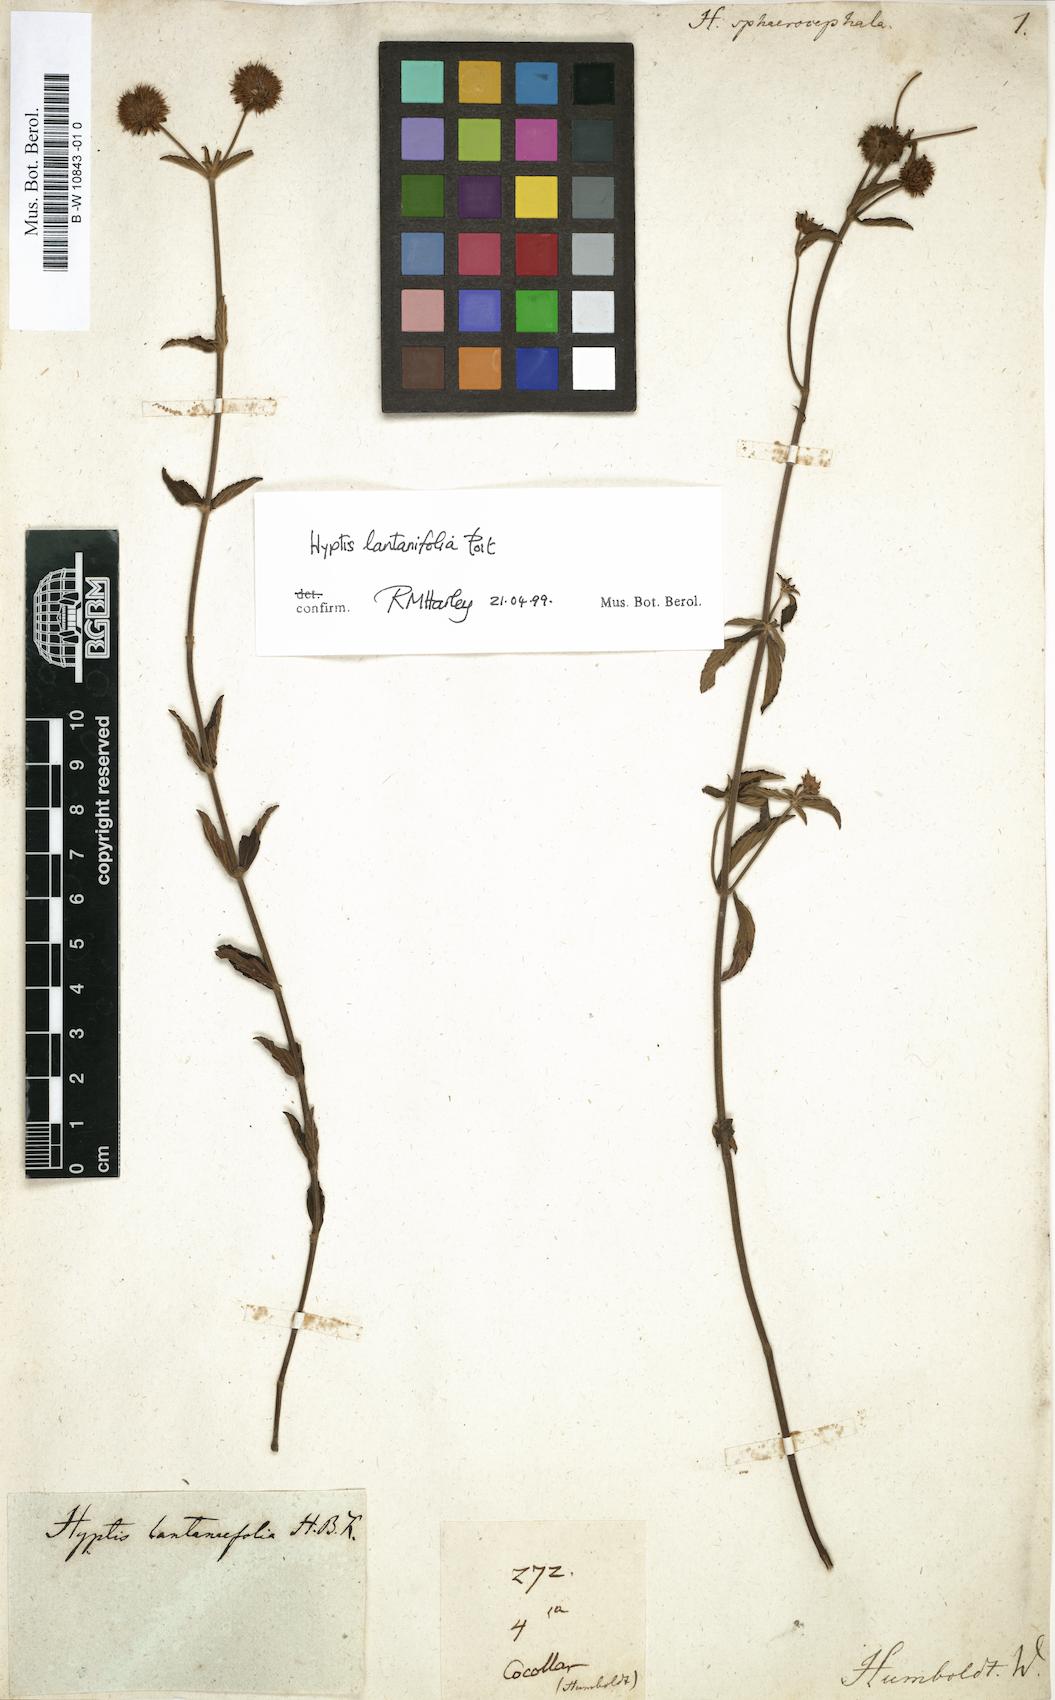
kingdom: Plantae
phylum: Tracheophyta
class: Magnoliopsida
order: Lamiales
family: Lamiaceae
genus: Hyptis
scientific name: Hyptis
